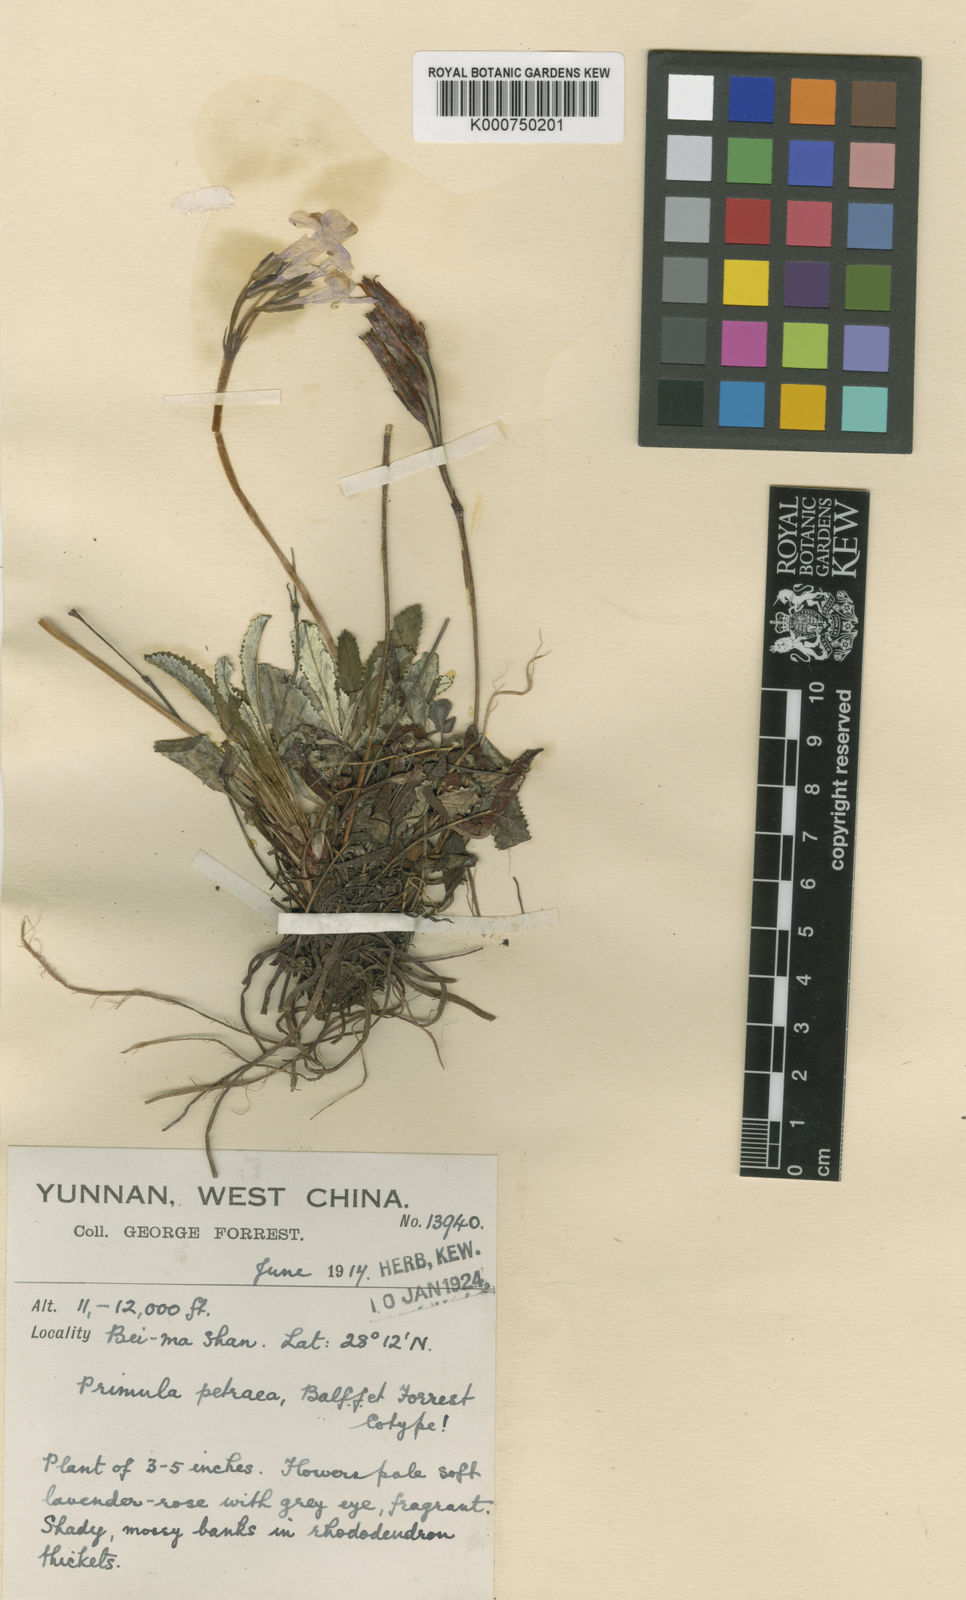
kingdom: Plantae
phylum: Tracheophyta
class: Magnoliopsida
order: Ericales
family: Primulaceae
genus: Primula
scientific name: Primula minor
